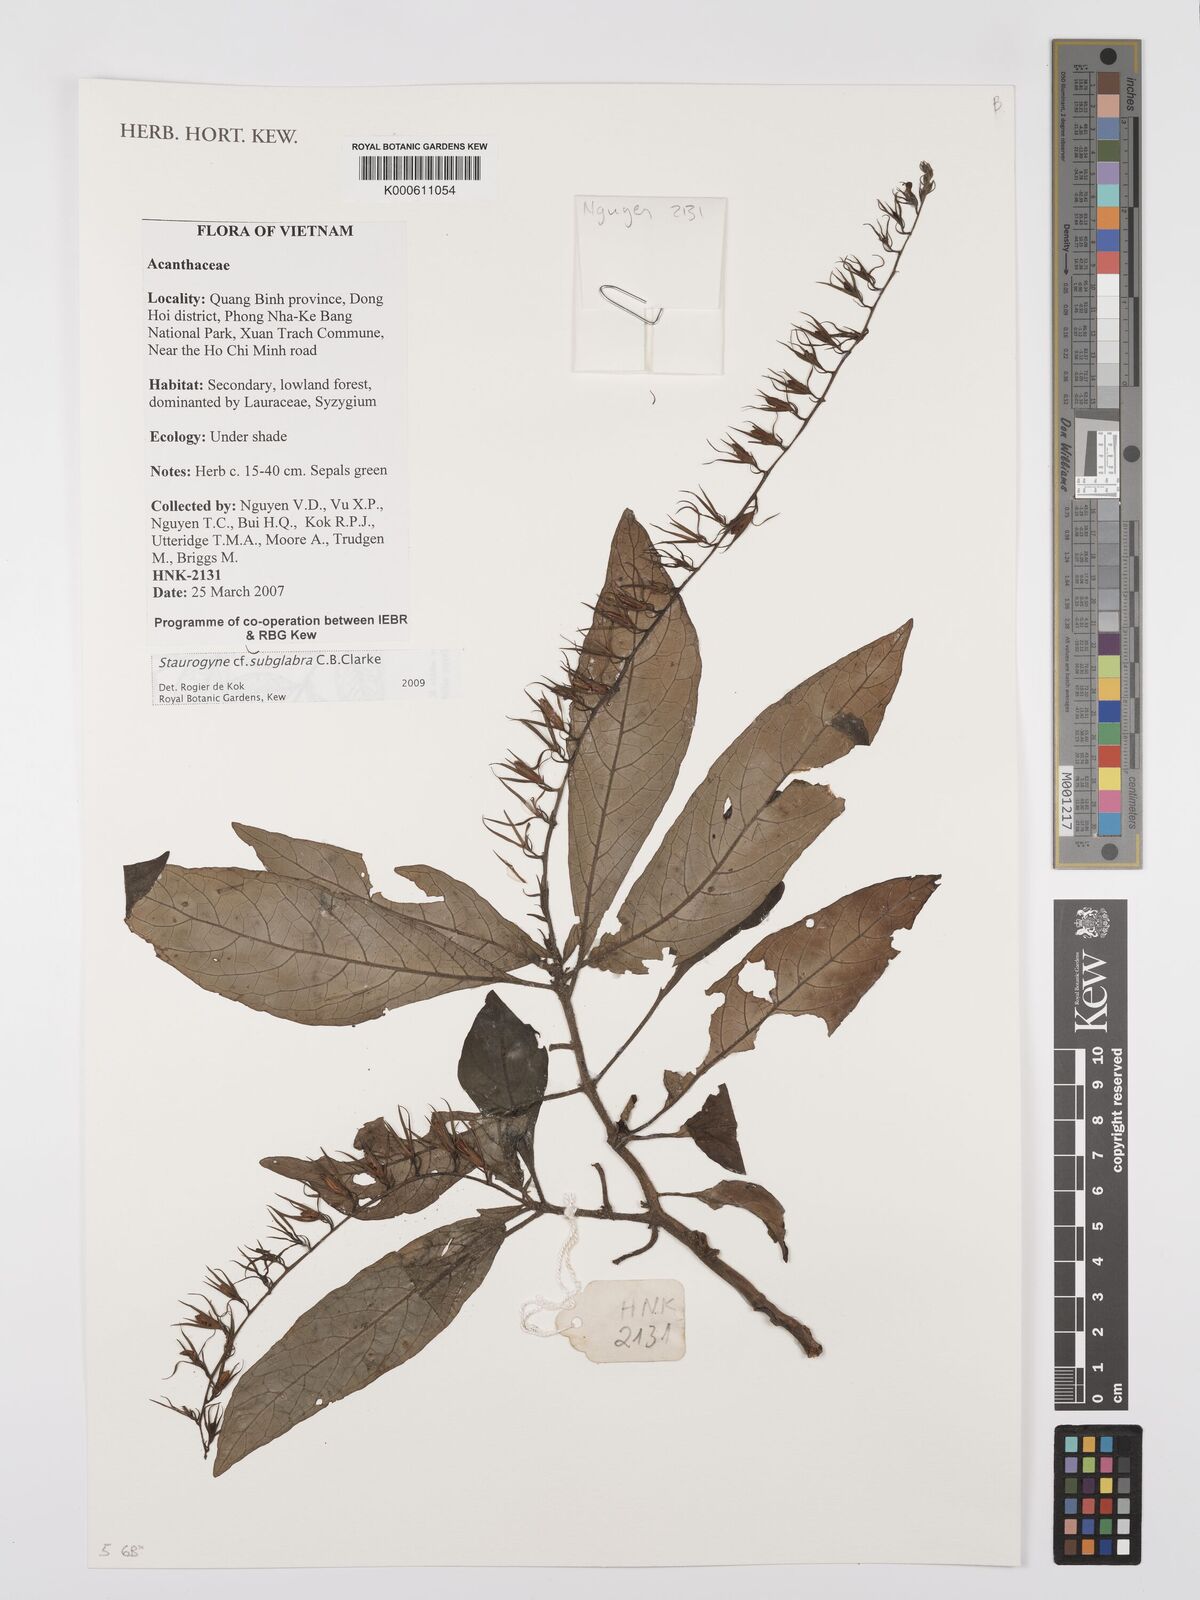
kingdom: Plantae
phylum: Tracheophyta
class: Magnoliopsida
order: Lamiales
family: Acanthaceae
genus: Staurogyne
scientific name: Staurogyne subglabra
